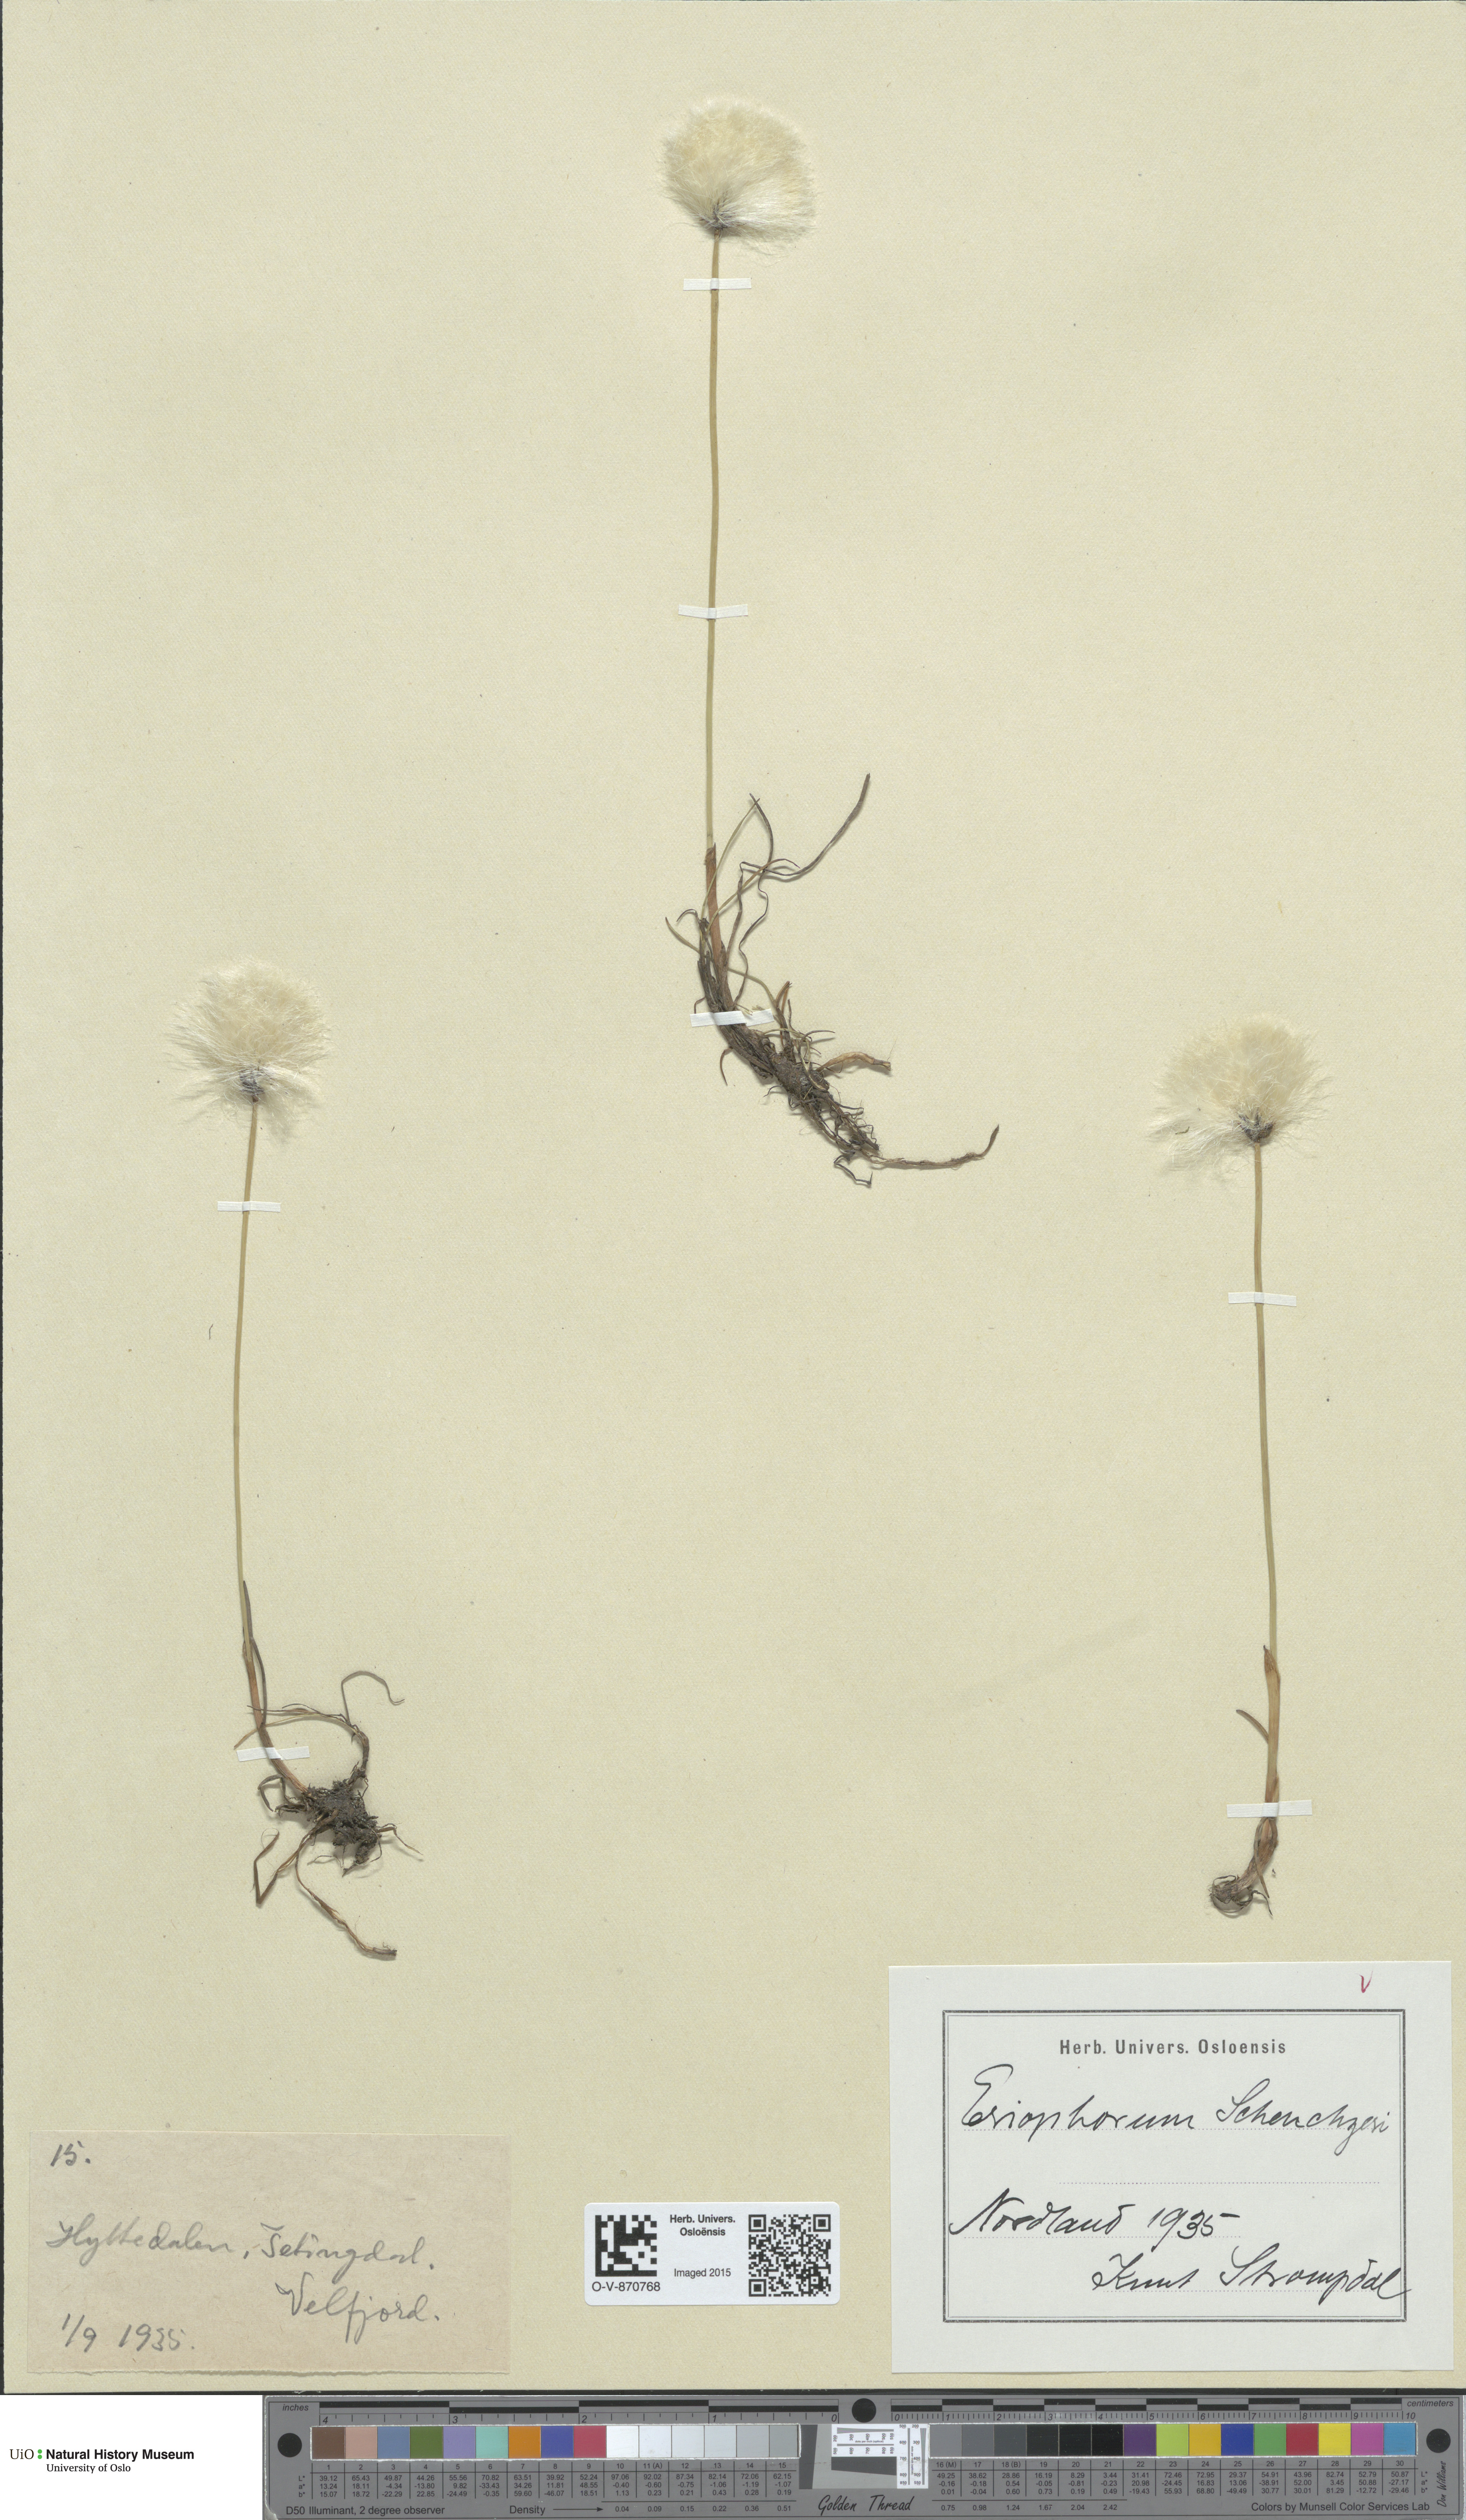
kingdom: Plantae
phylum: Tracheophyta
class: Liliopsida
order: Poales
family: Cyperaceae
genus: Eriophorum
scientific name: Eriophorum scheuchzeri
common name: Scheuchzer's cottongrass
